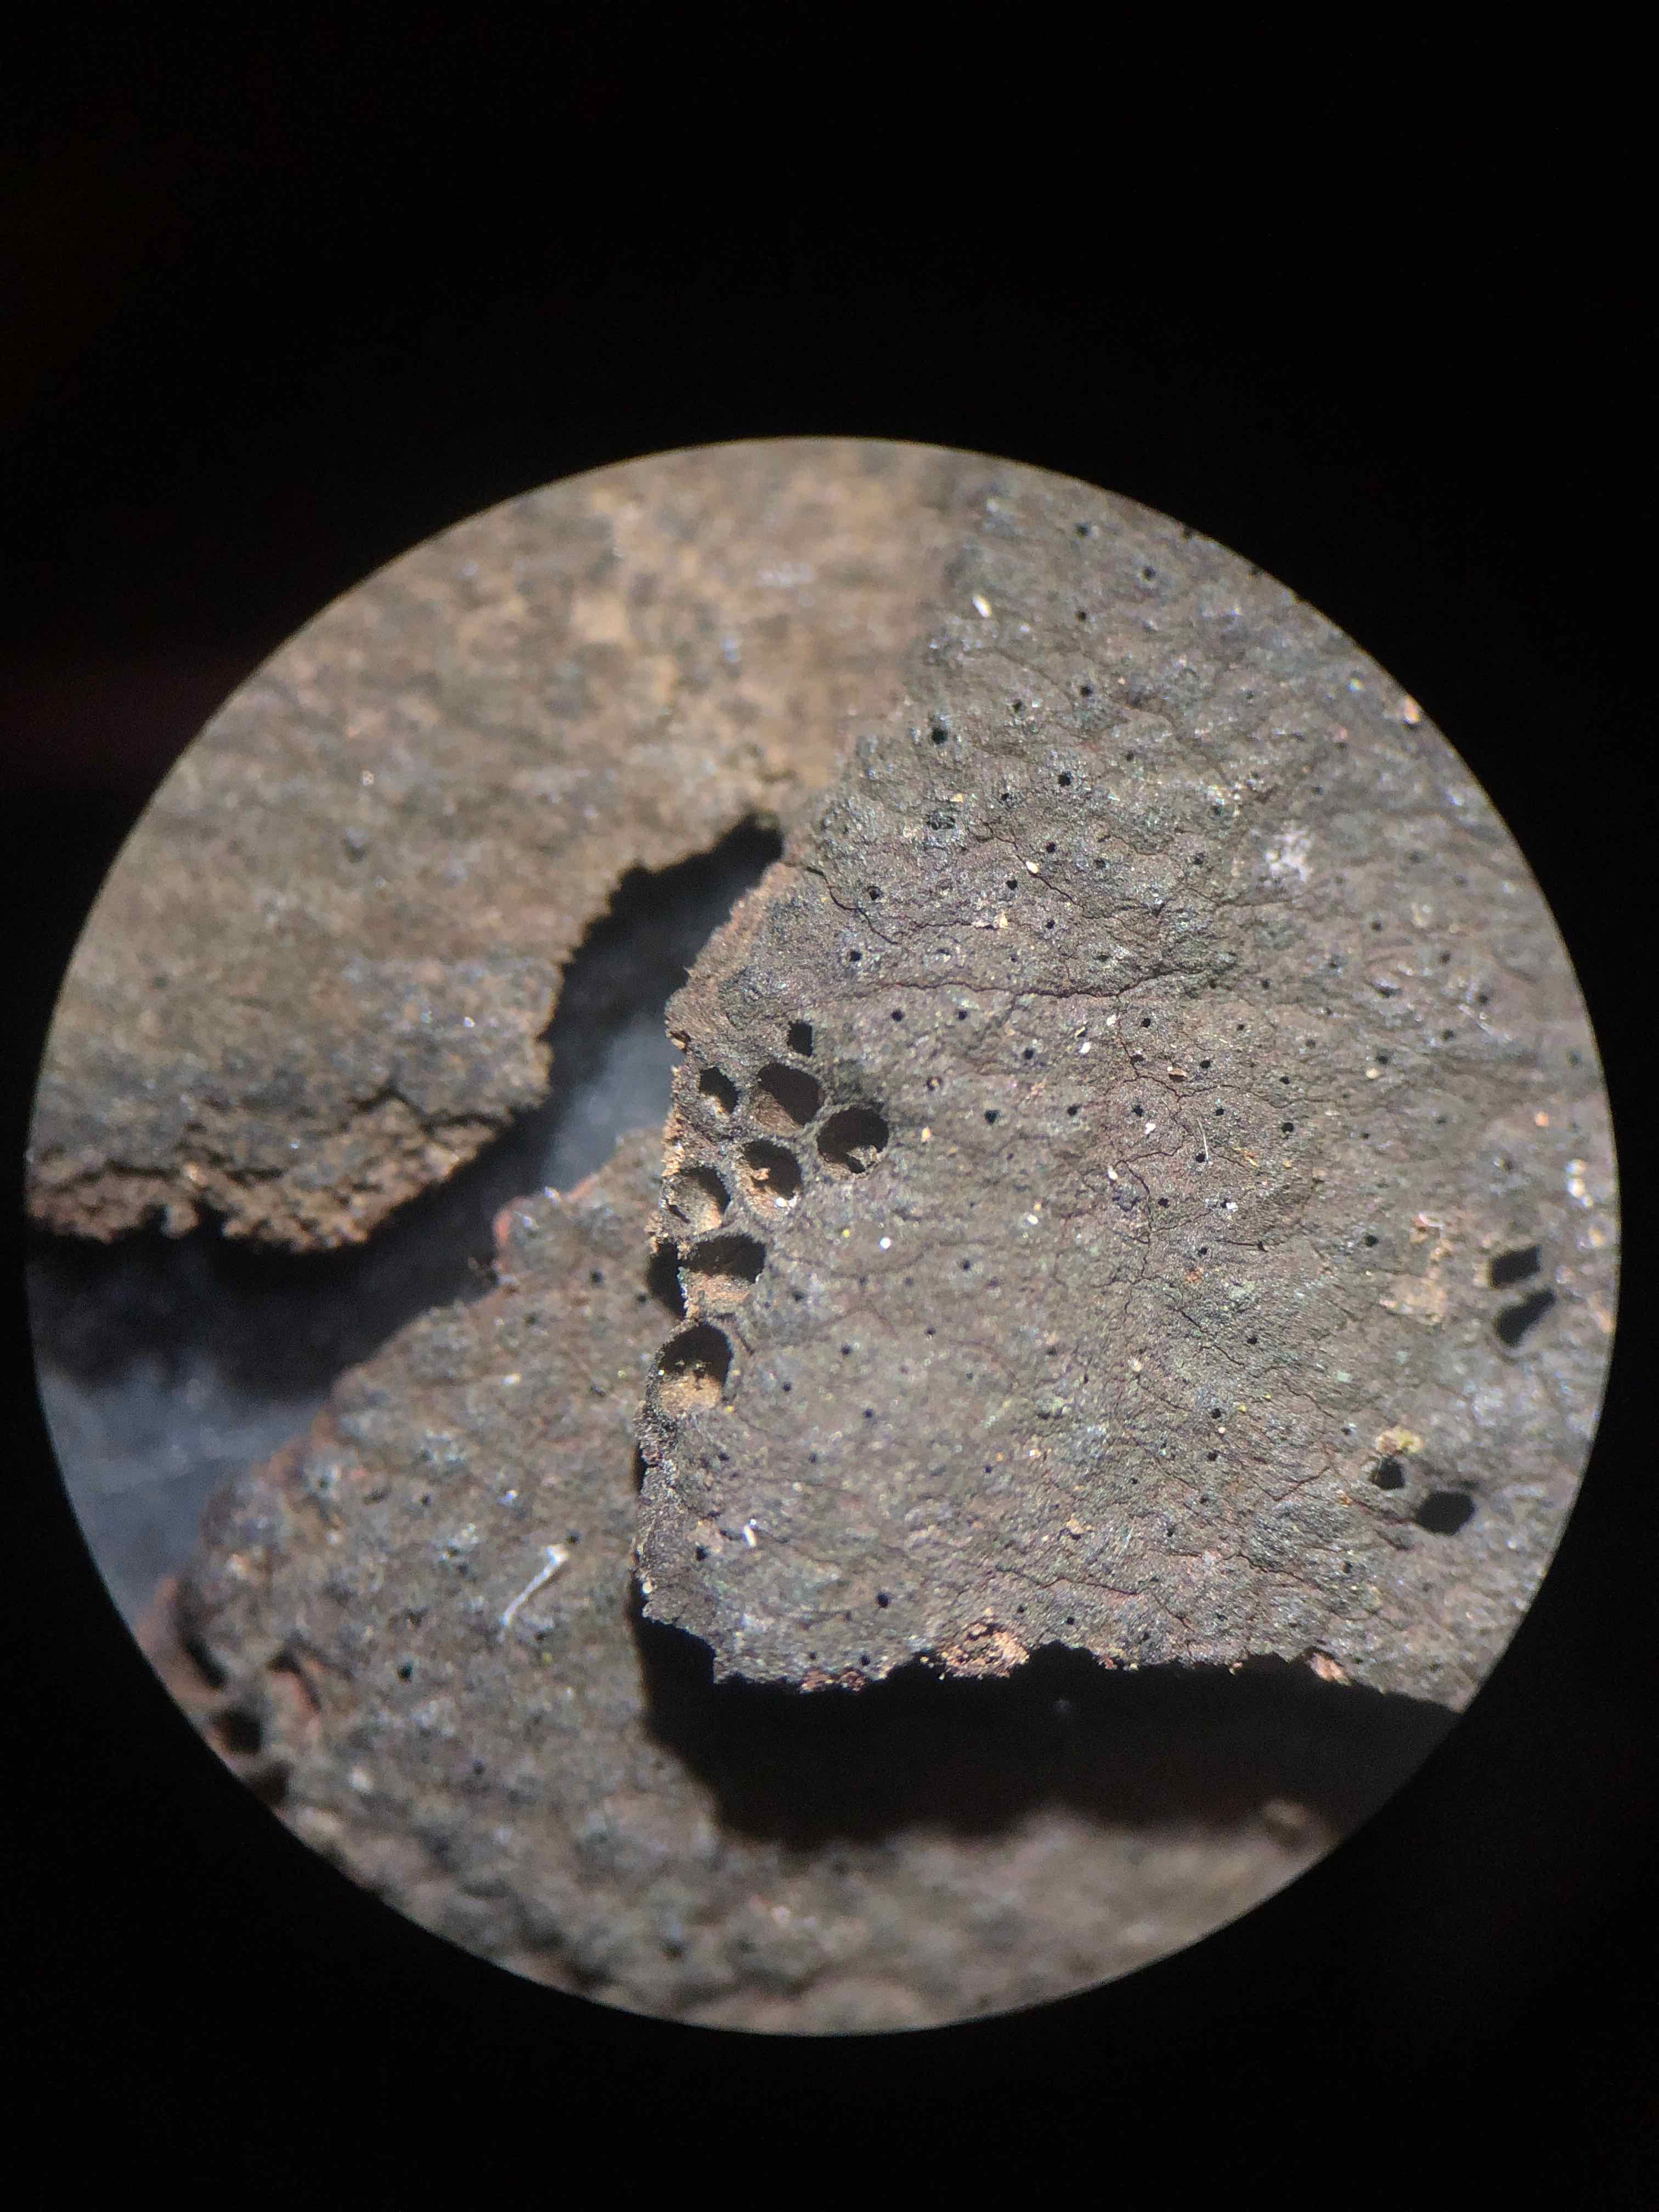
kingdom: Fungi
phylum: Ascomycota
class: Sordariomycetes
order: Xylariales
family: Hypoxylaceae
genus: Hypoxylon
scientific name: Hypoxylon macrocarpum
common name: skorpe-kulbær
